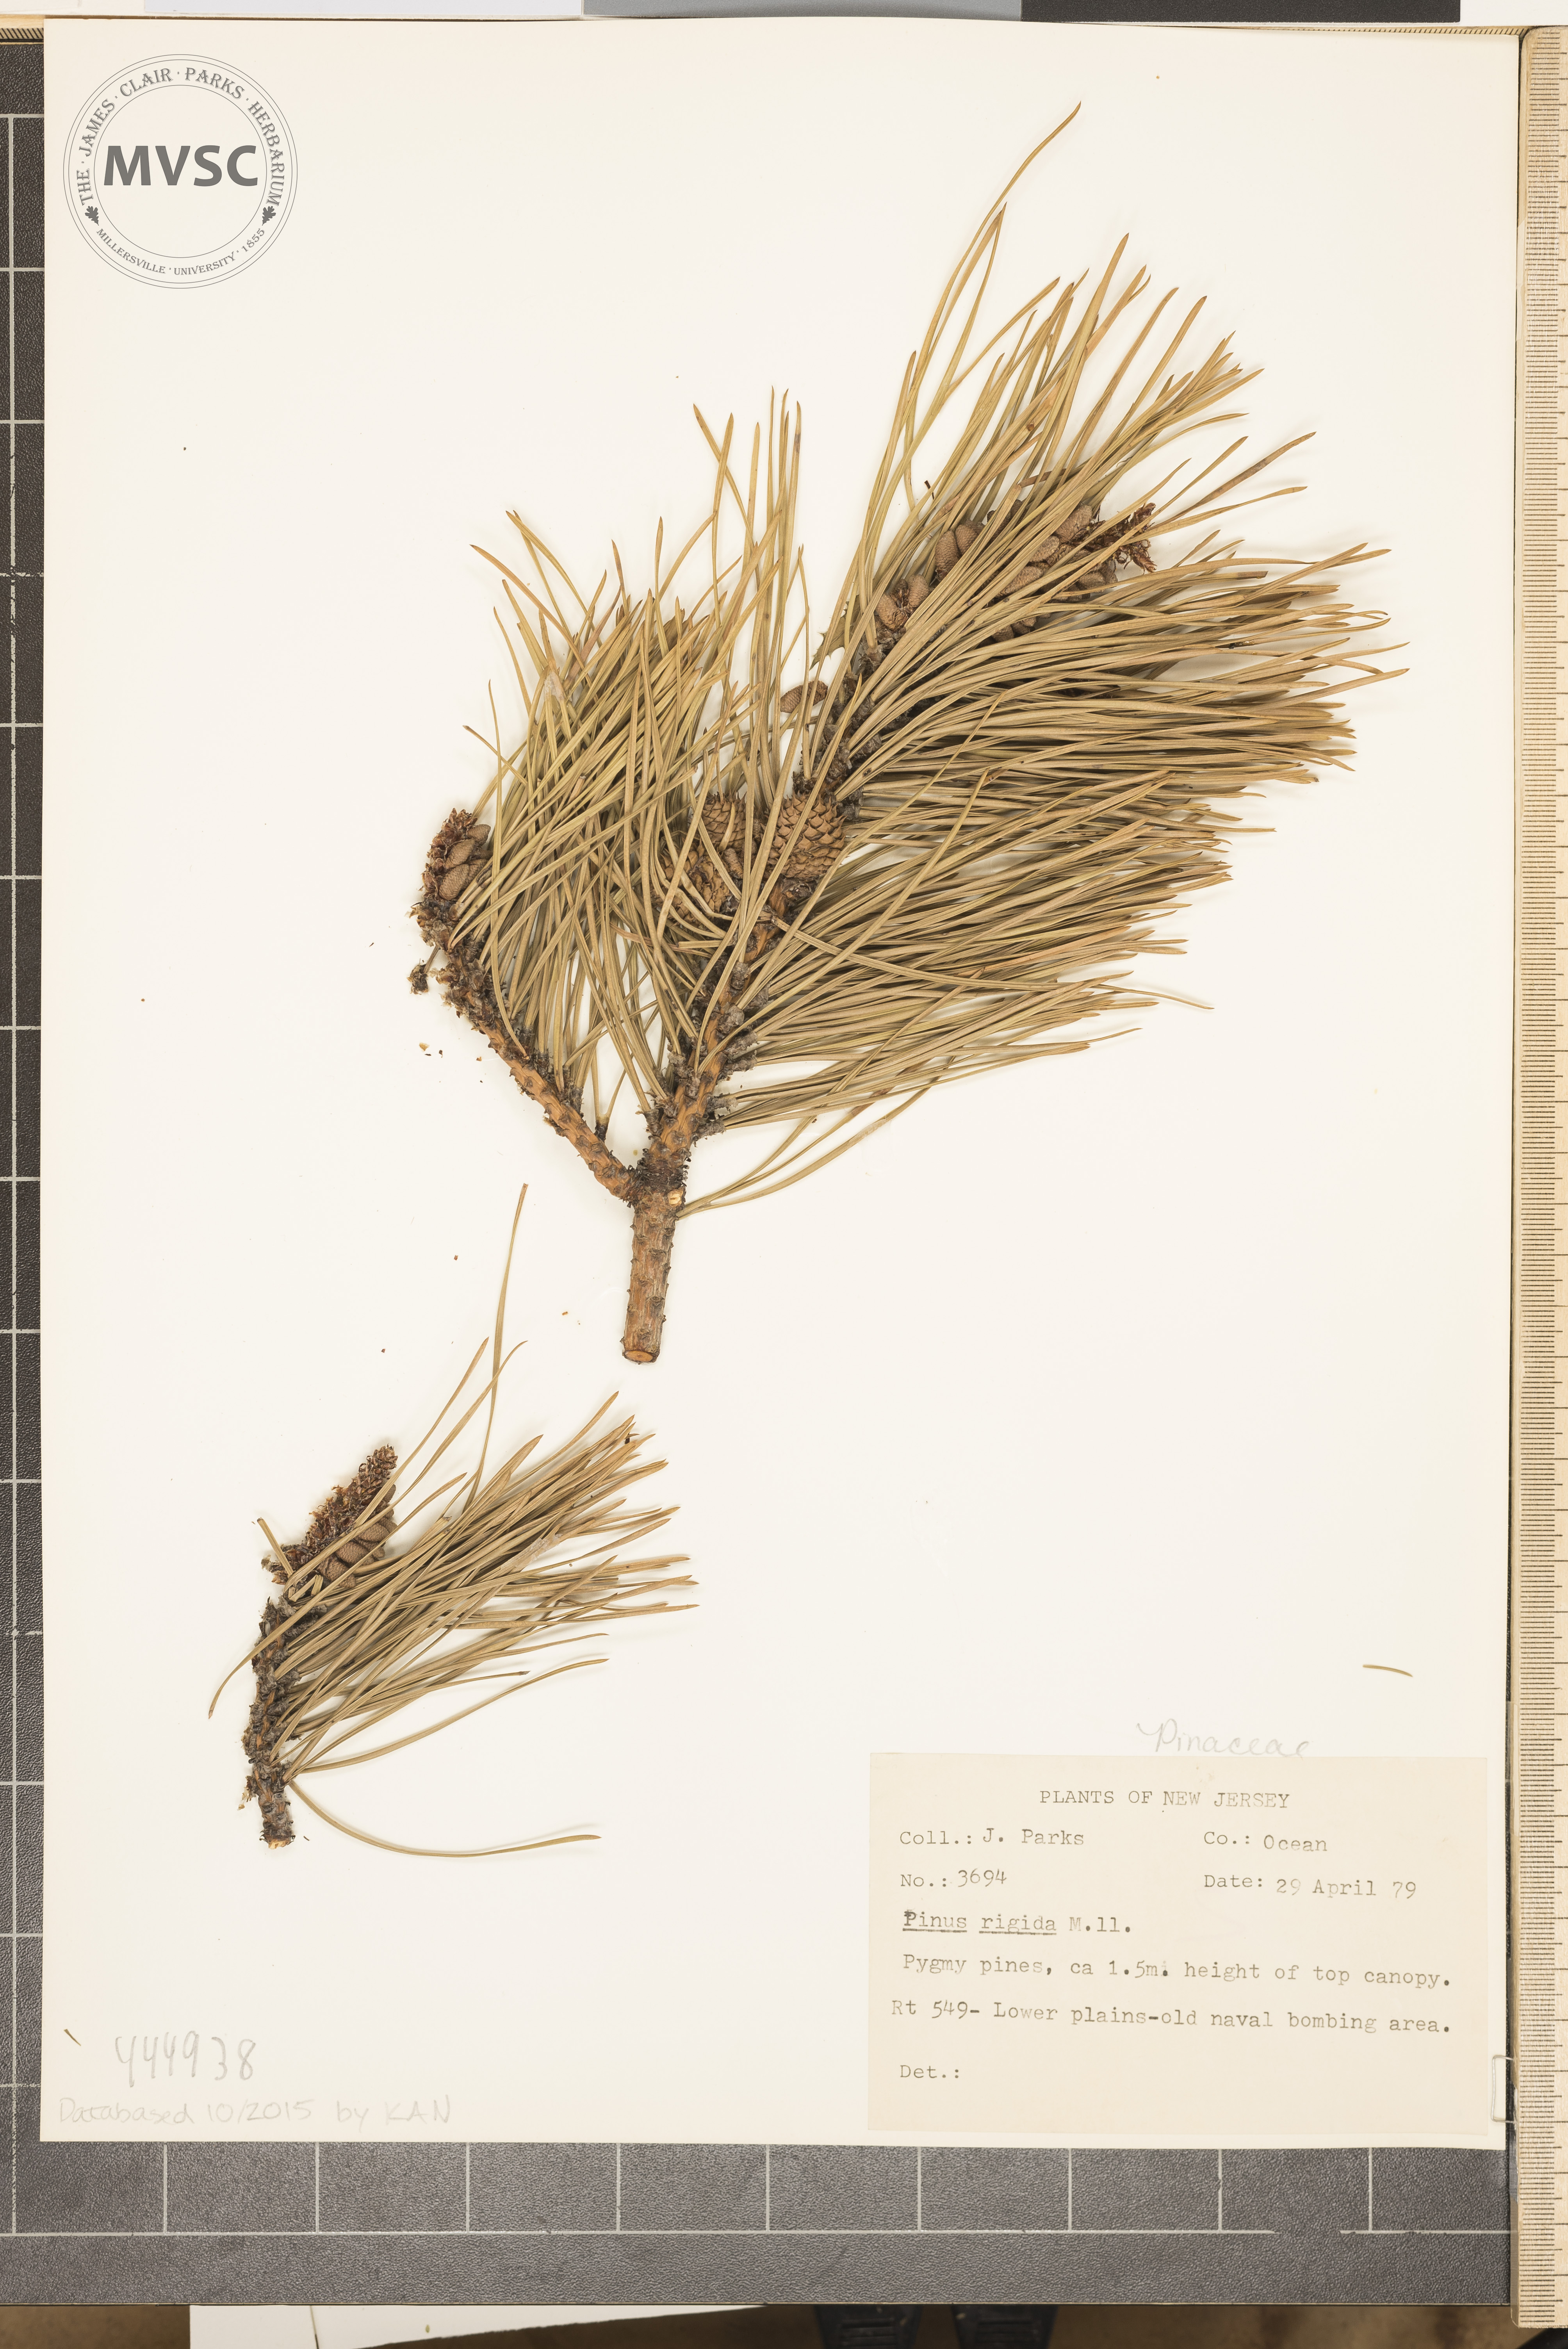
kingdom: Plantae
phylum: Tracheophyta
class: Pinopsida
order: Pinales
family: Pinaceae
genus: Pinus
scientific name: Pinus rigida
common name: Pitch Pine
